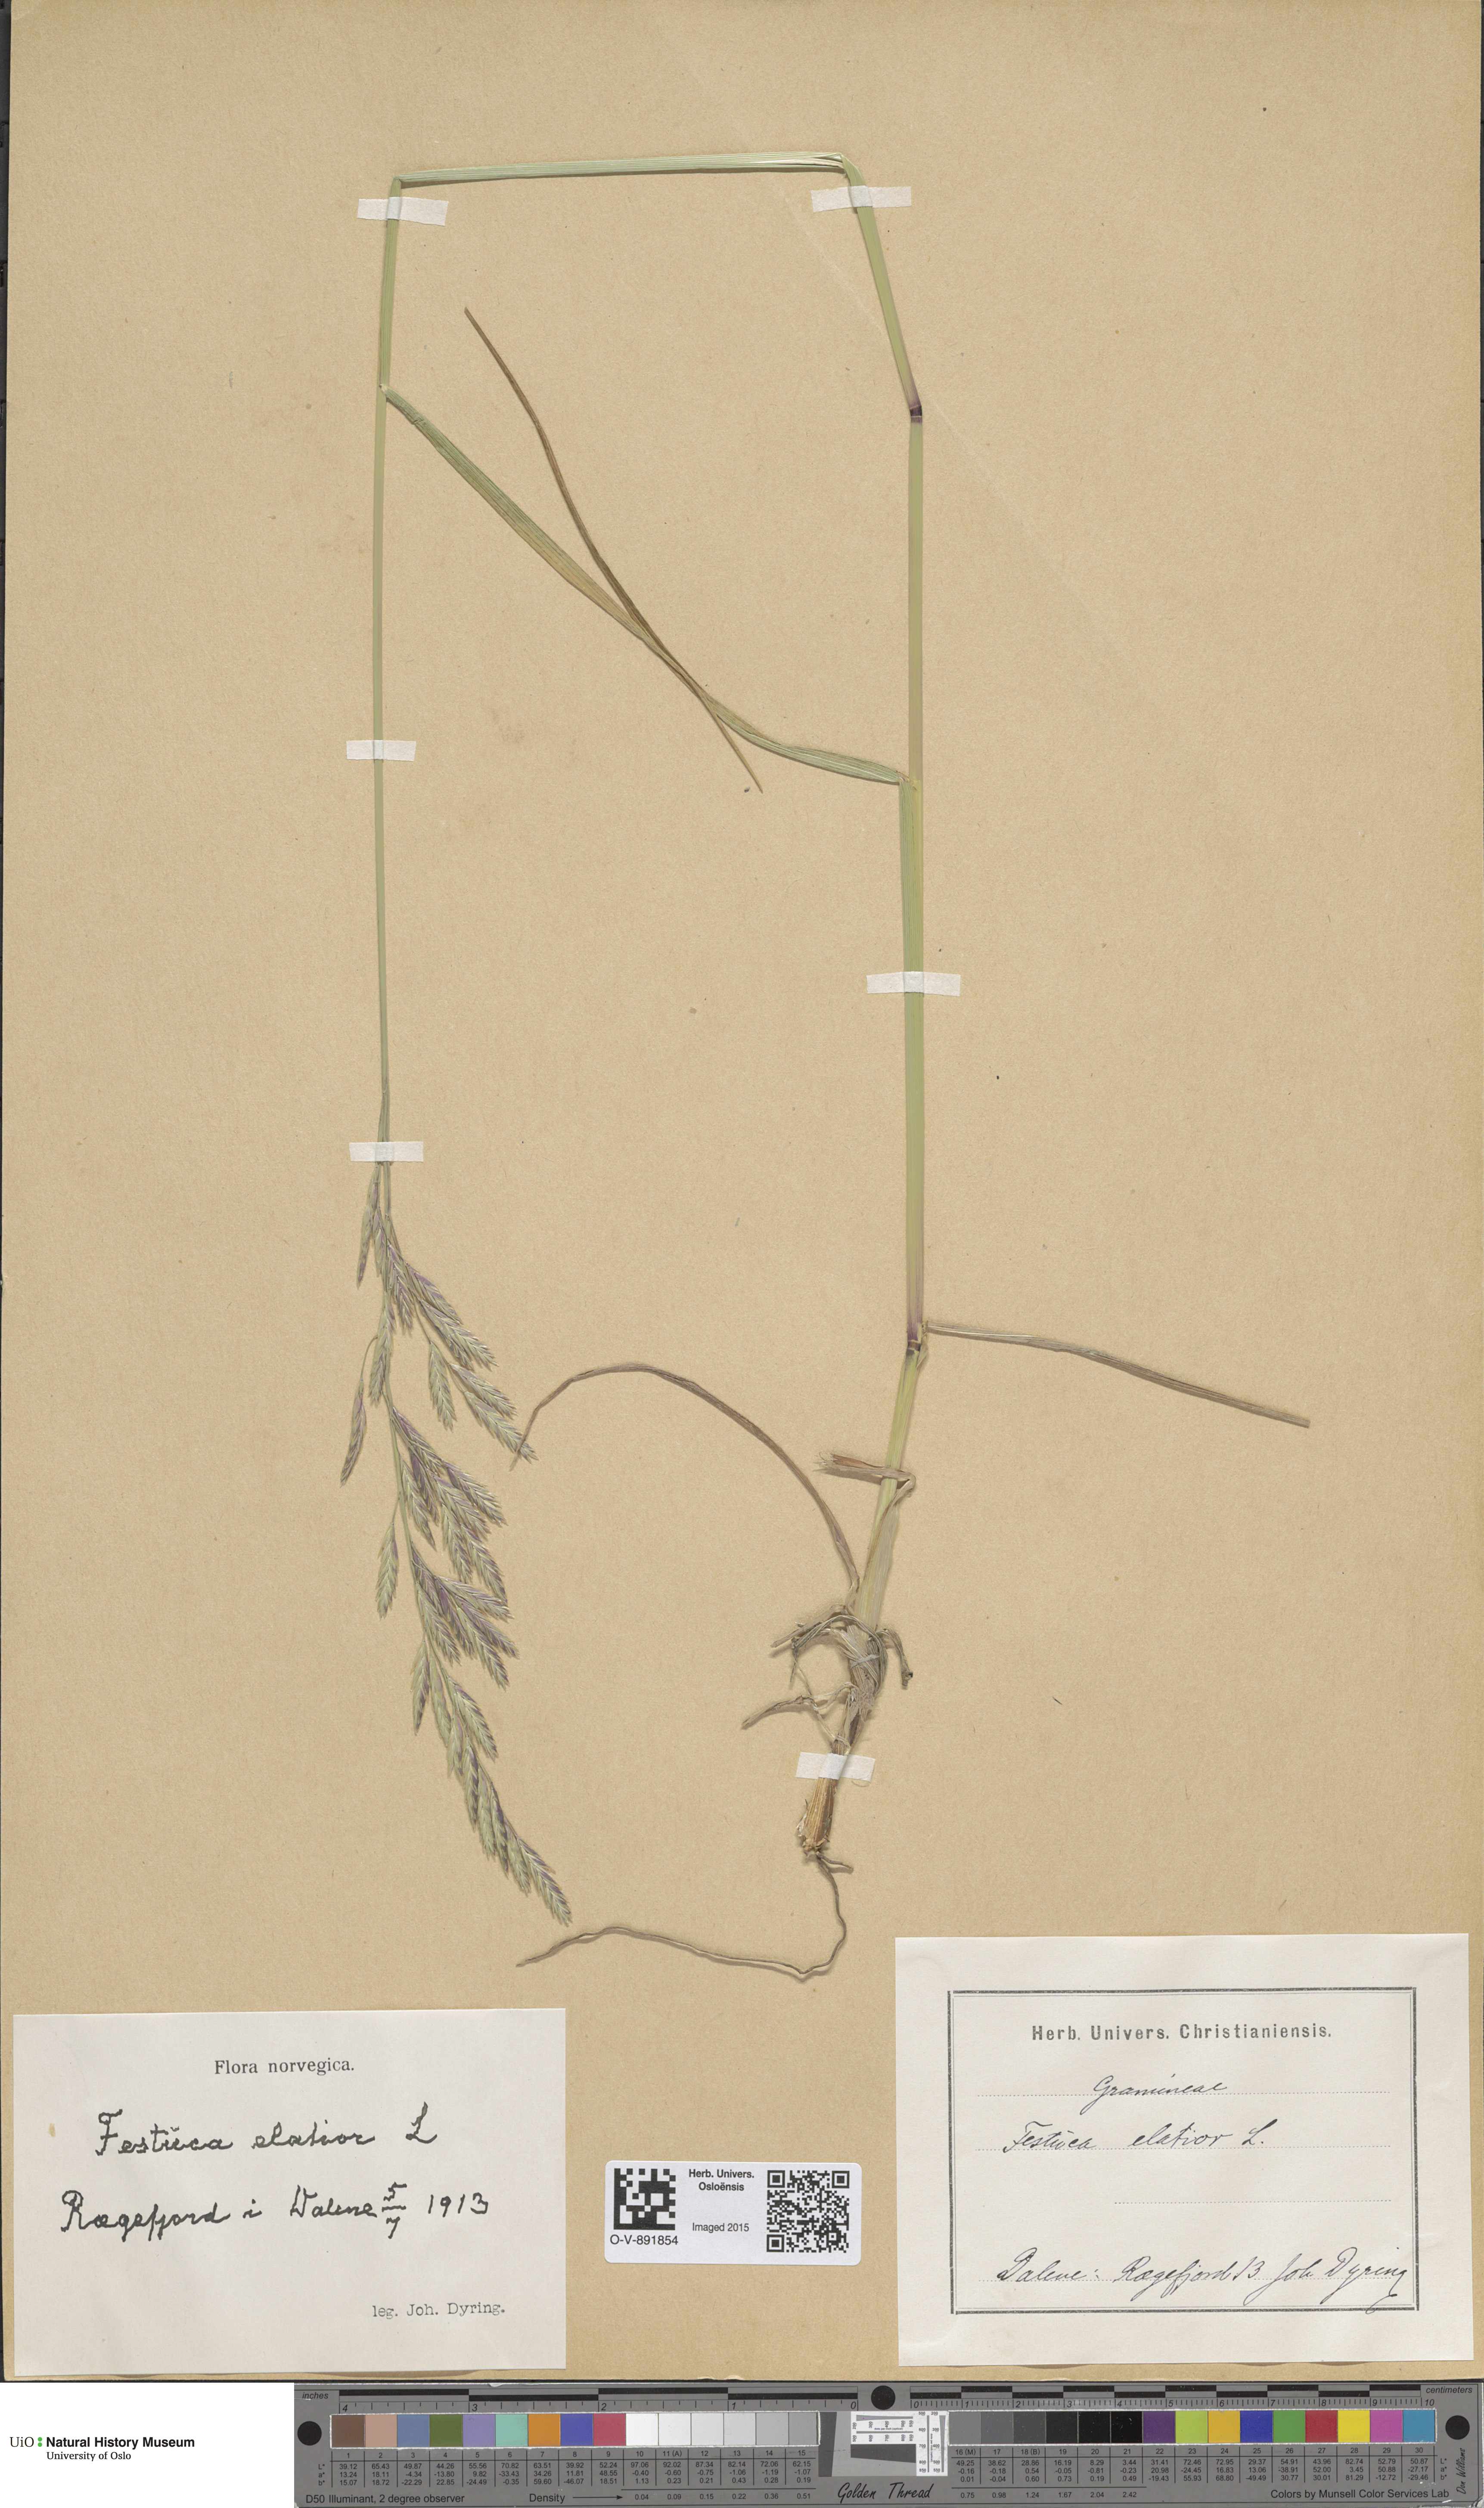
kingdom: Plantae
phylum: Tracheophyta
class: Liliopsida
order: Poales
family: Poaceae
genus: Lolium
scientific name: Lolium arundinaceum
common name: Reed fescue
